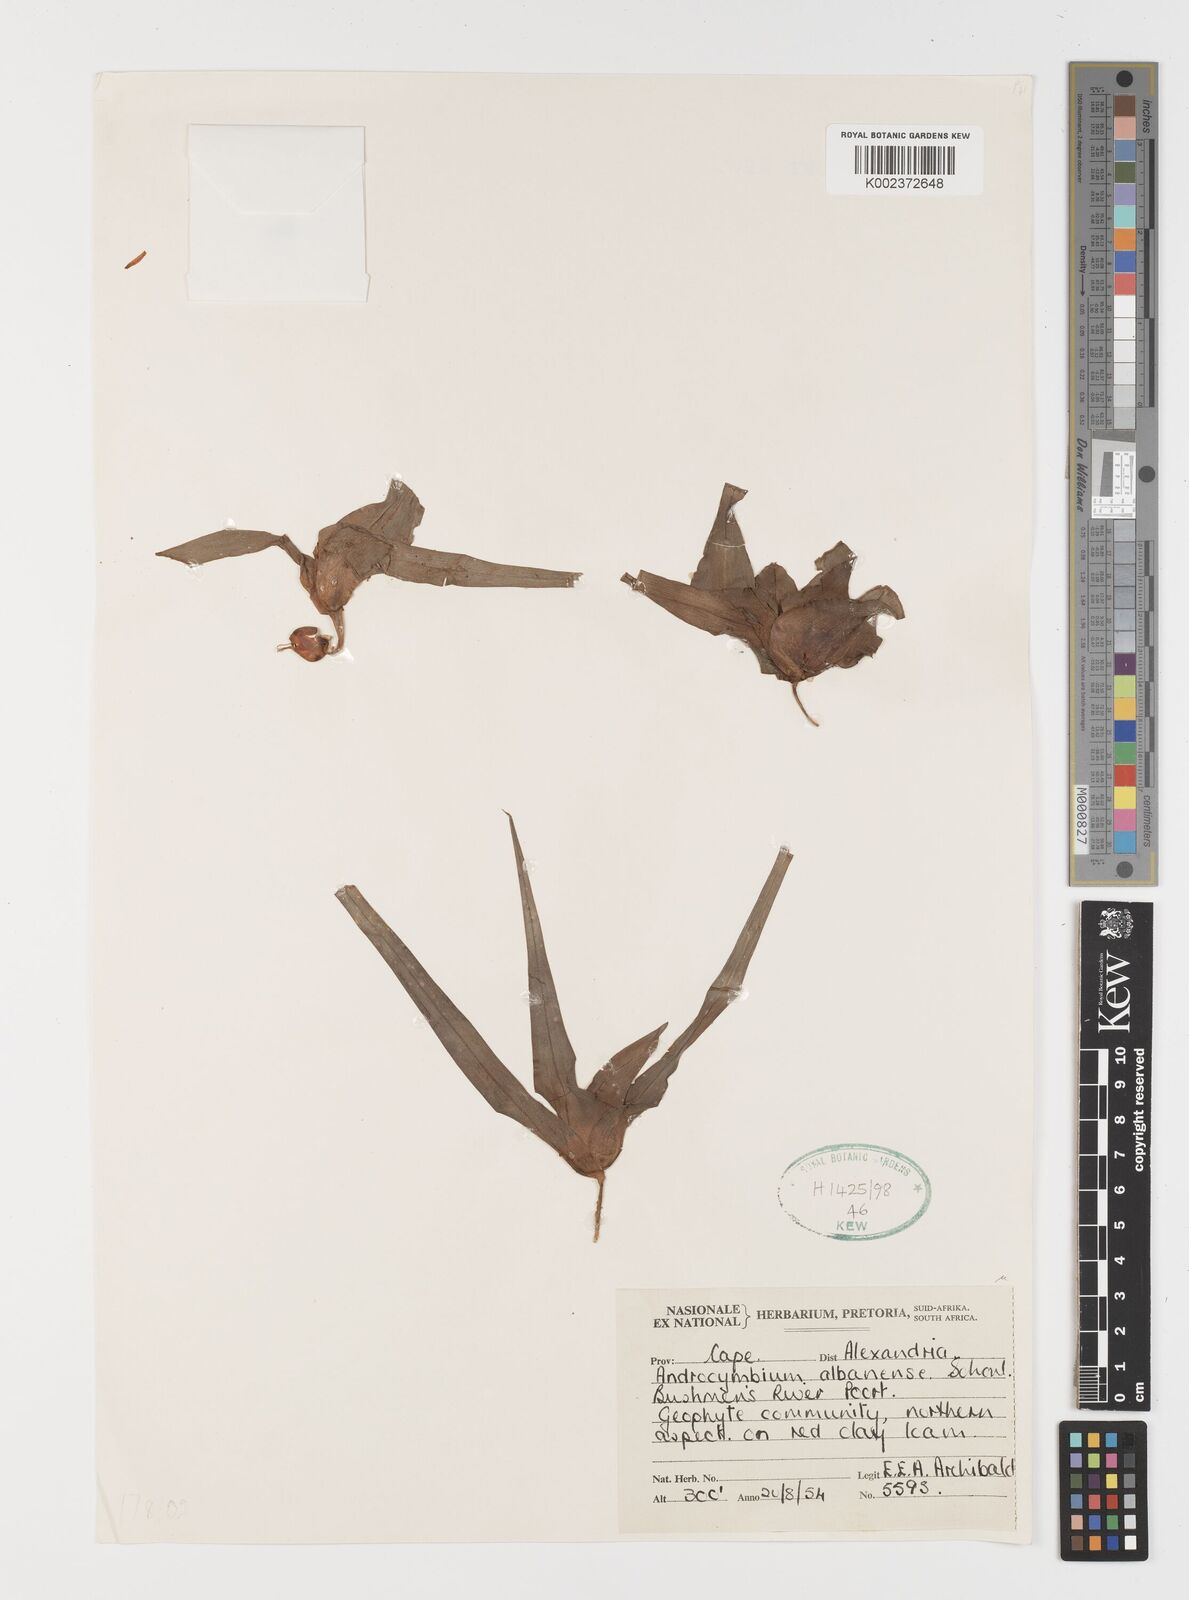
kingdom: Plantae
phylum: Tracheophyta
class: Liliopsida
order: Liliales
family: Colchicaceae
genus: Colchicum
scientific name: Colchicum albanense
